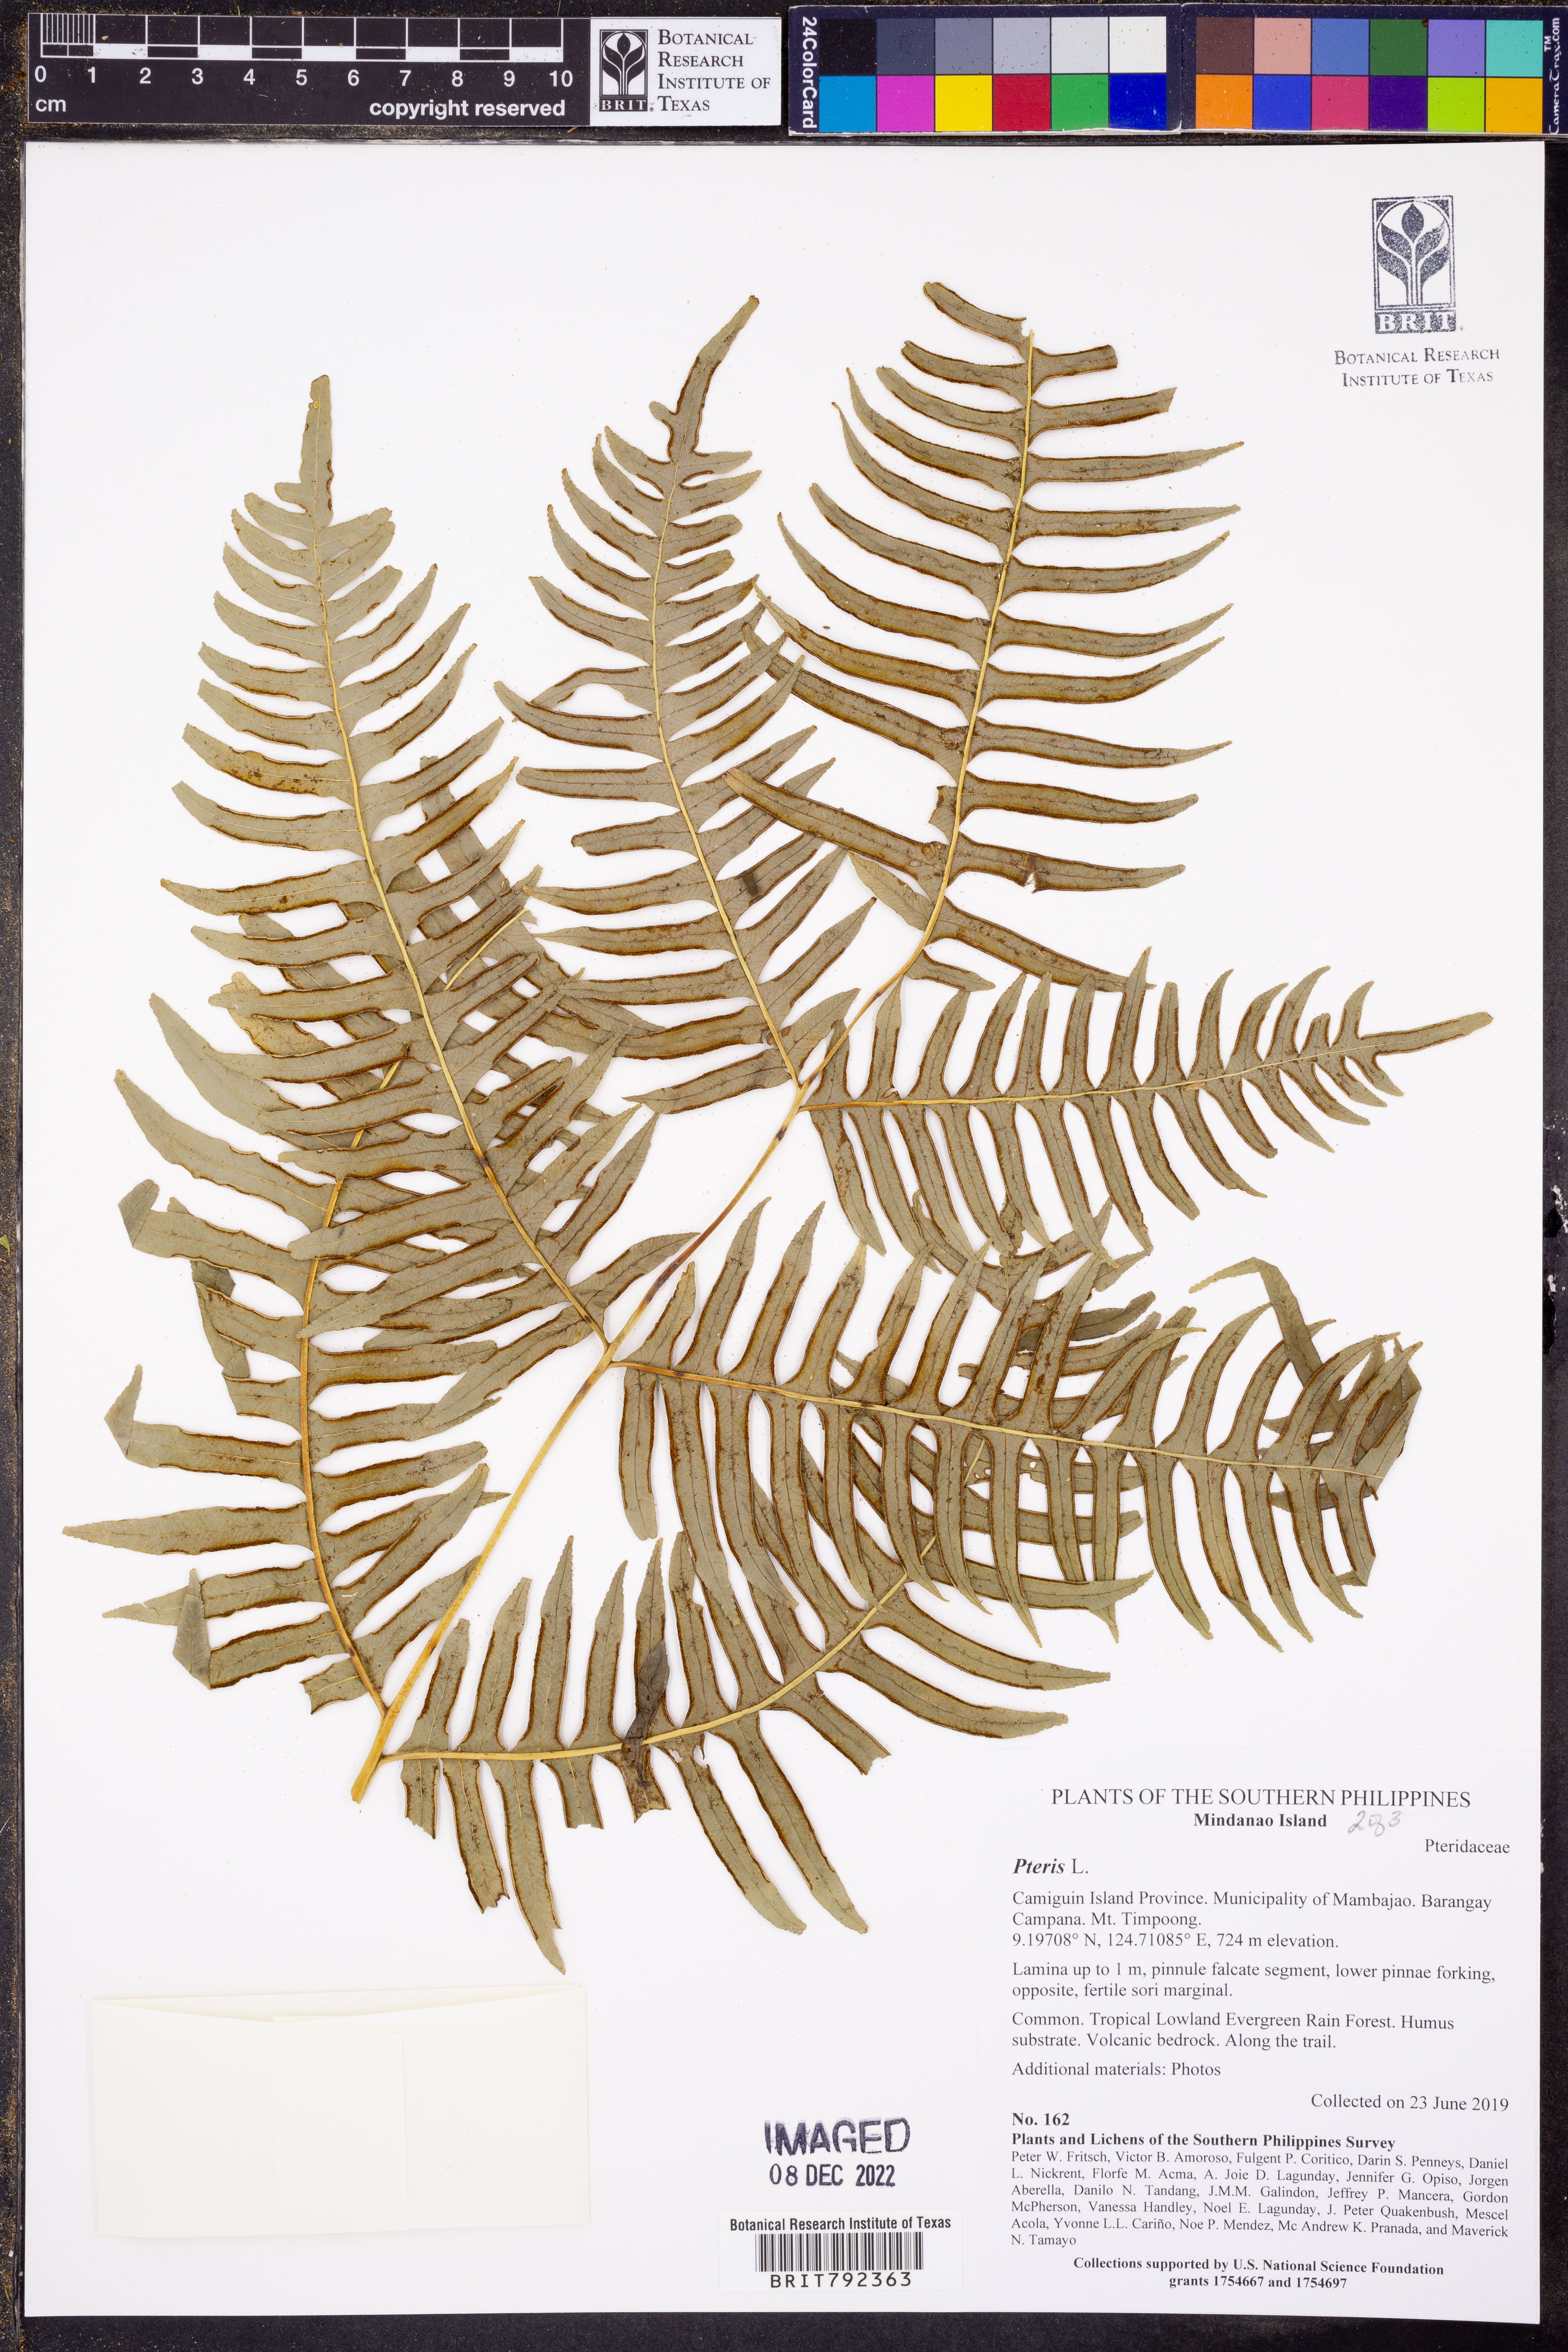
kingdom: Plantae
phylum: Tracheophyta
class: Polypodiopsida
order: Polypodiales
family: Pteridaceae
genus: Pteris
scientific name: Pteris
